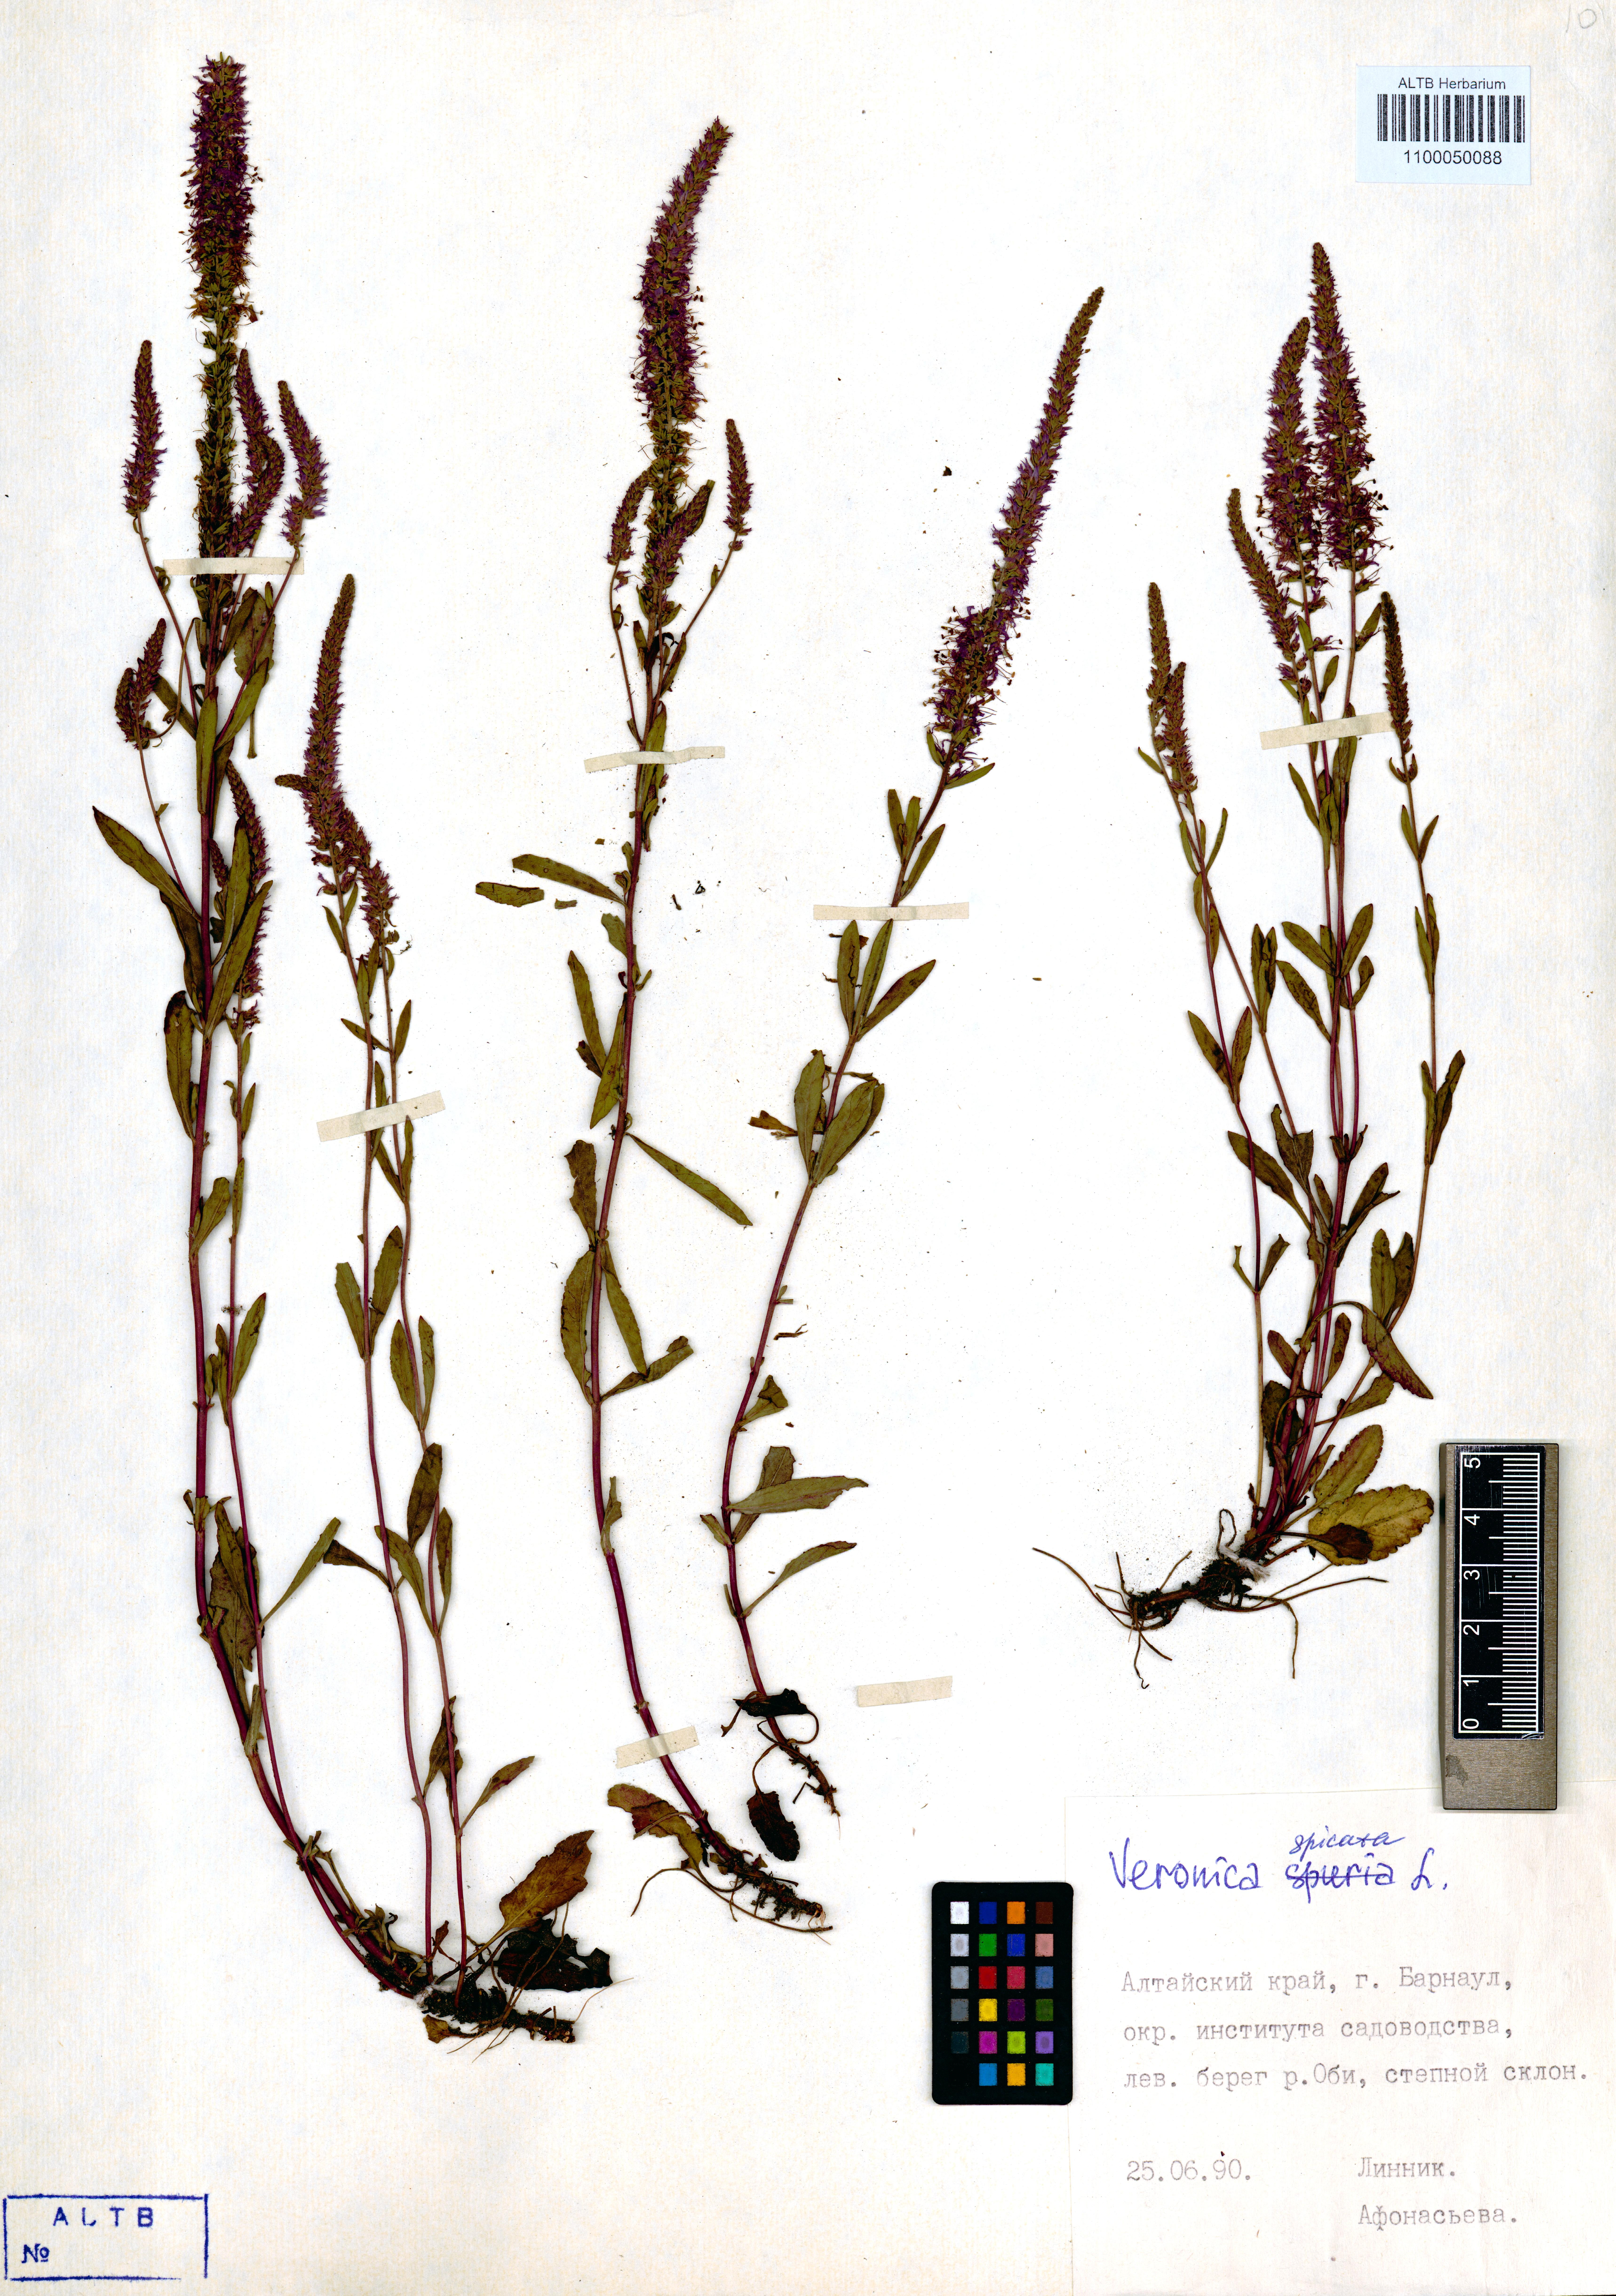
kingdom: Plantae
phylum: Tracheophyta
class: Magnoliopsida
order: Lamiales
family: Plantaginaceae
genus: Veronica
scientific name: Veronica spicata
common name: Spiked speedwell
